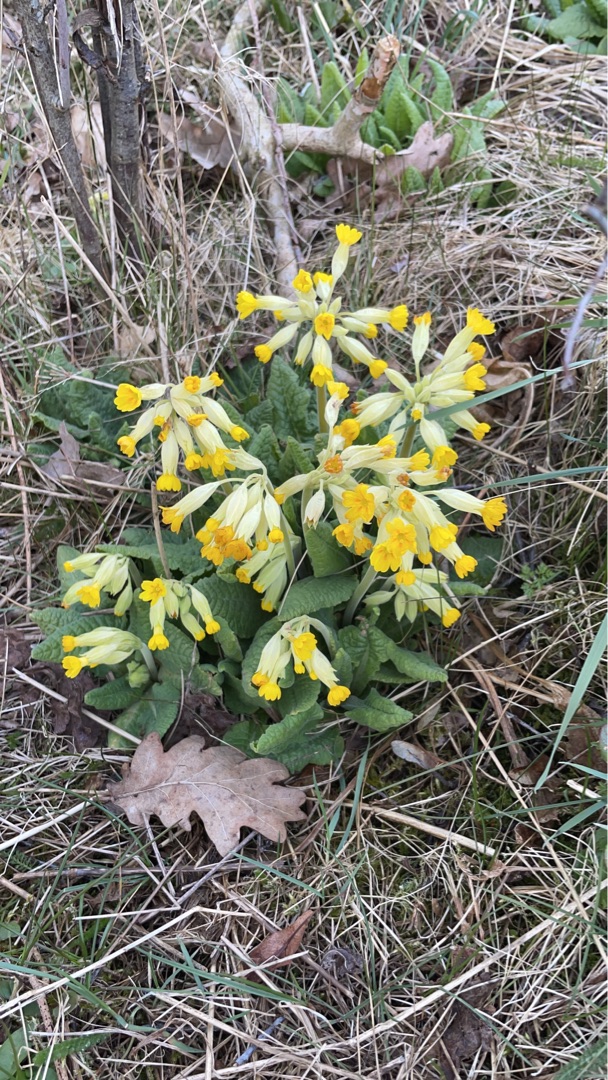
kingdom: Plantae
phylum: Tracheophyta
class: Magnoliopsida
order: Ericales
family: Primulaceae
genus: Primula
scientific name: Primula veris
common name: Hulkravet kodriver
